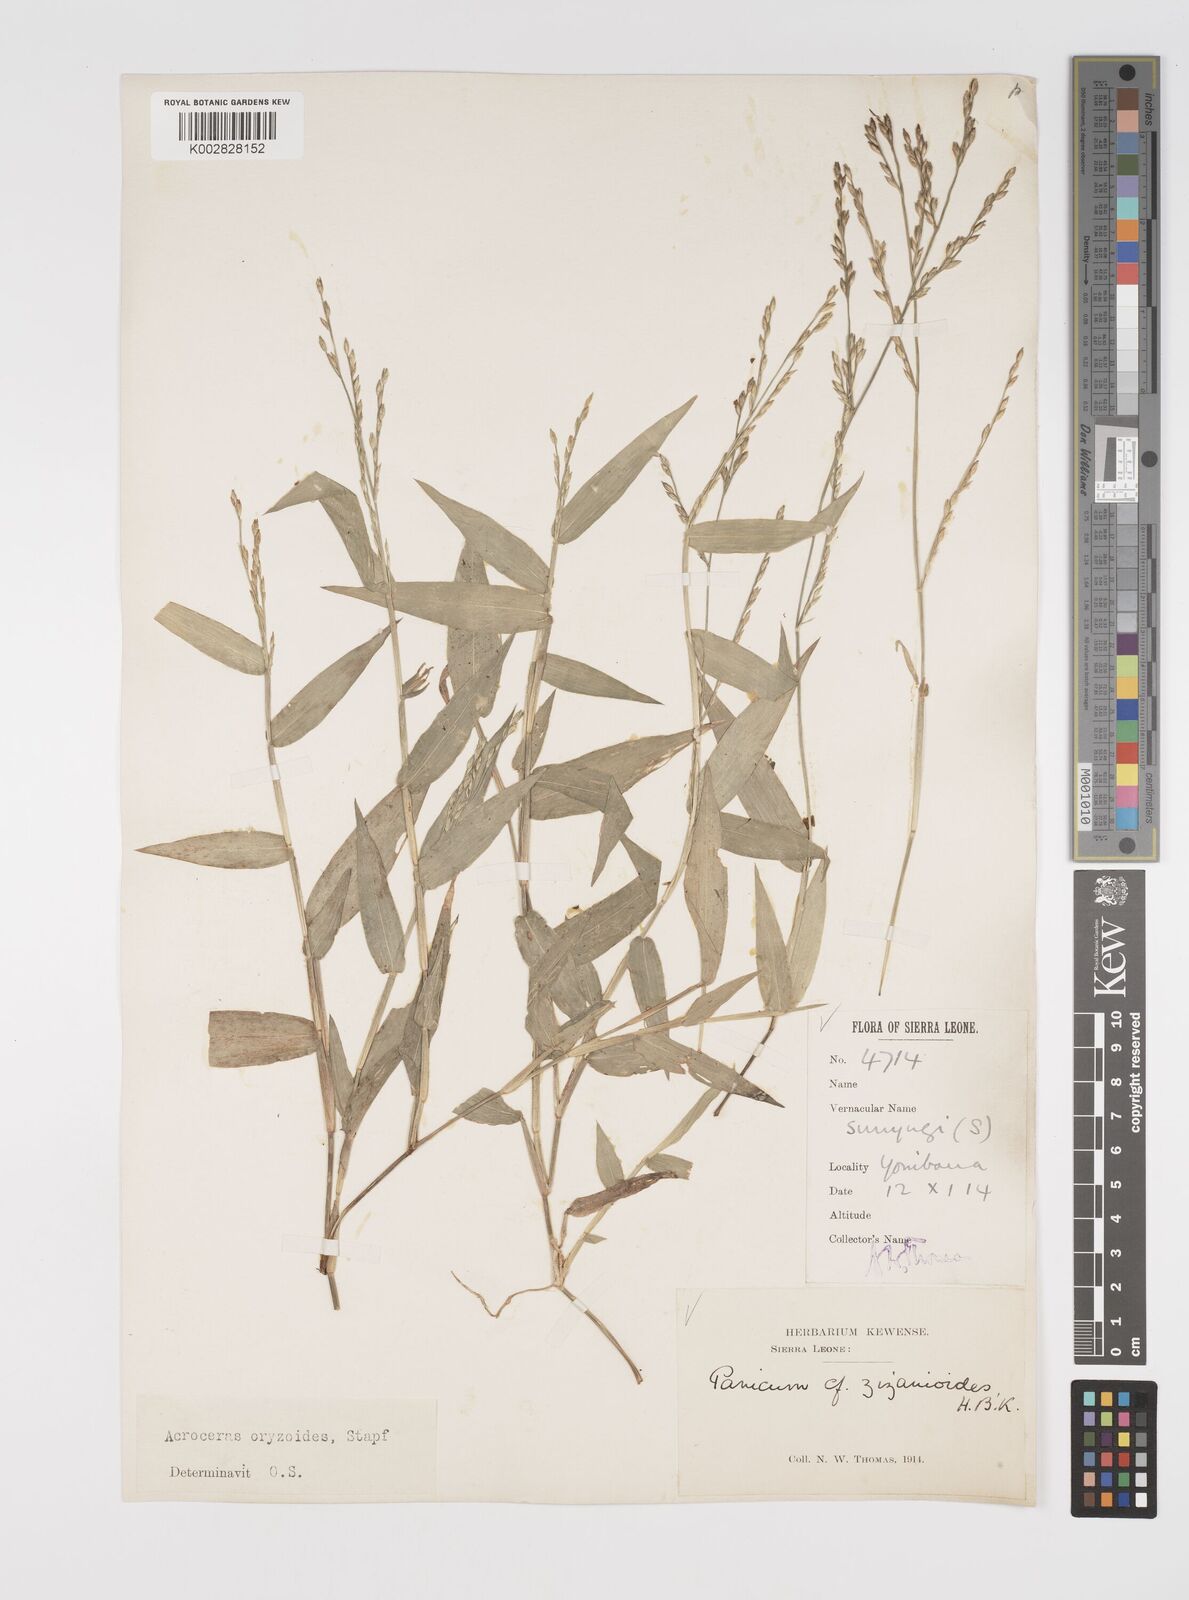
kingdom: Plantae
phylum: Tracheophyta
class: Liliopsida
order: Poales
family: Poaceae
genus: Acroceras
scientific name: Acroceras zizanioides
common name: Oat grass
